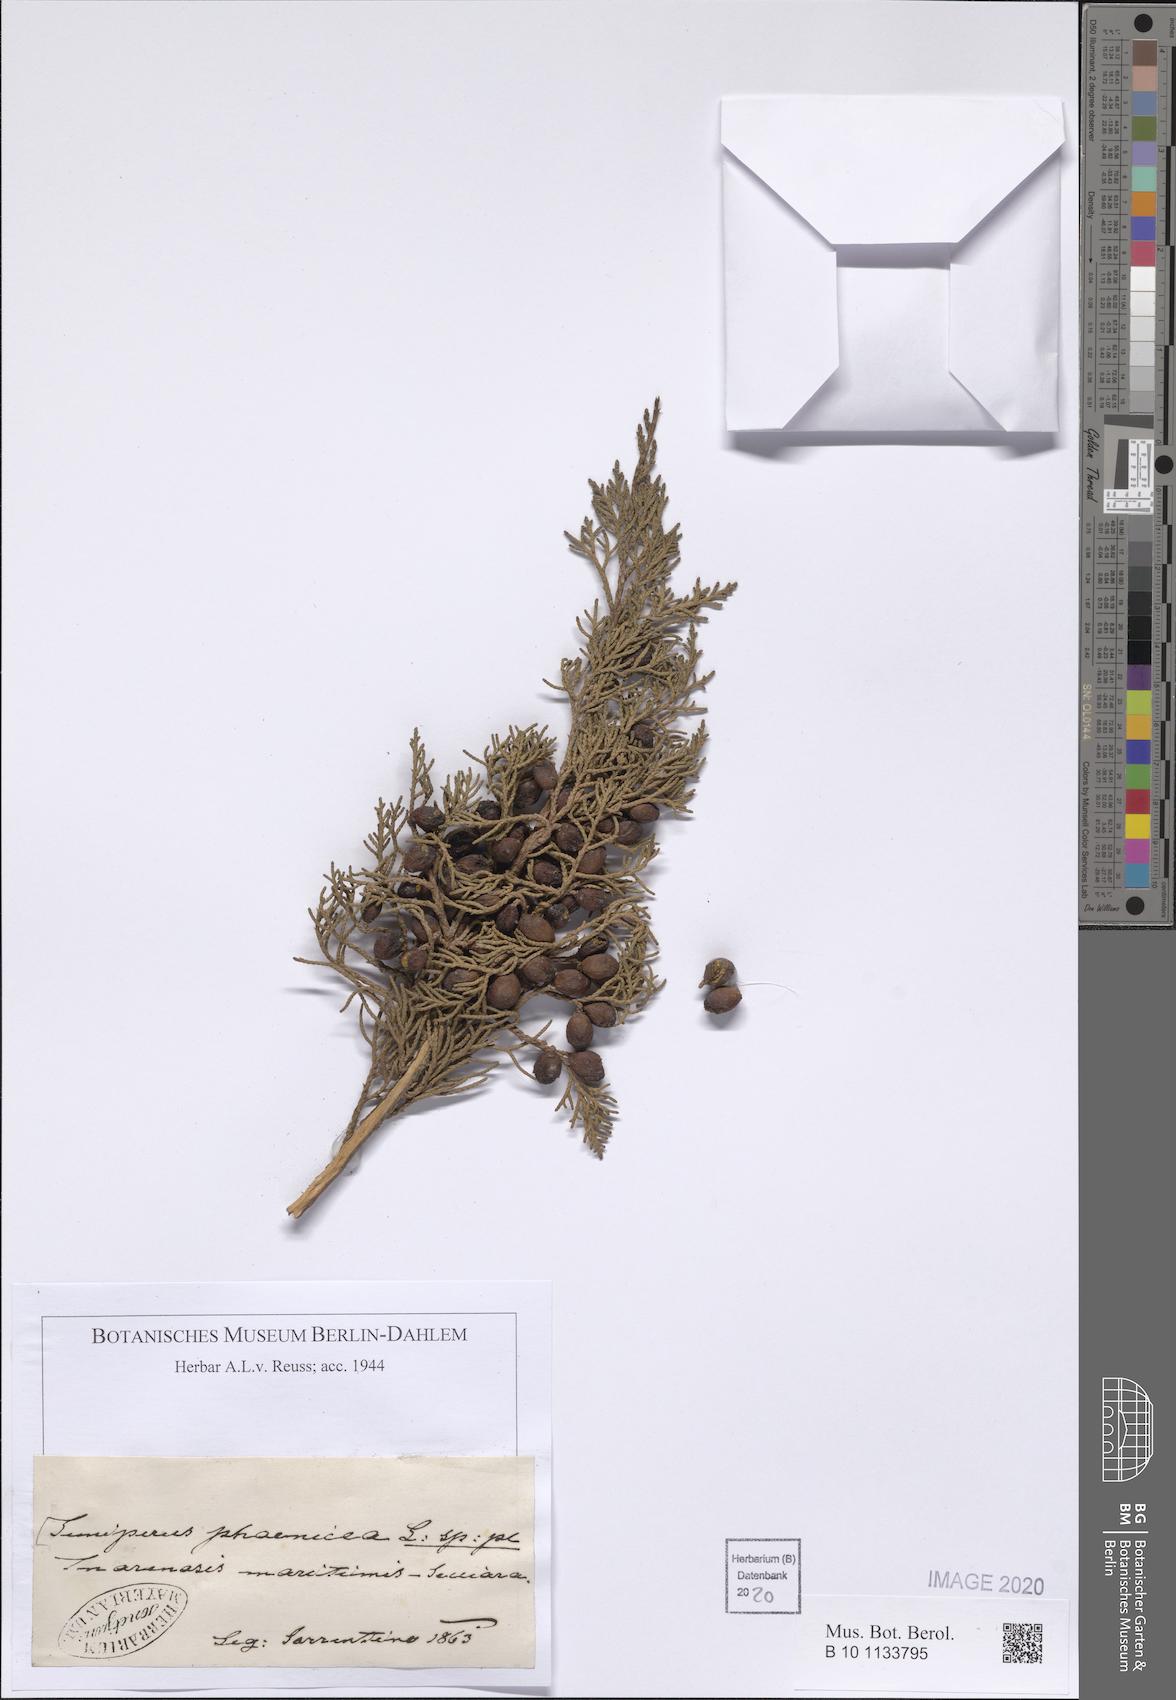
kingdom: Plantae
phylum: Tracheophyta
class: Pinopsida
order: Pinales
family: Cupressaceae
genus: Juniperus
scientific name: Juniperus phoenicea
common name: Phoenician juniper
